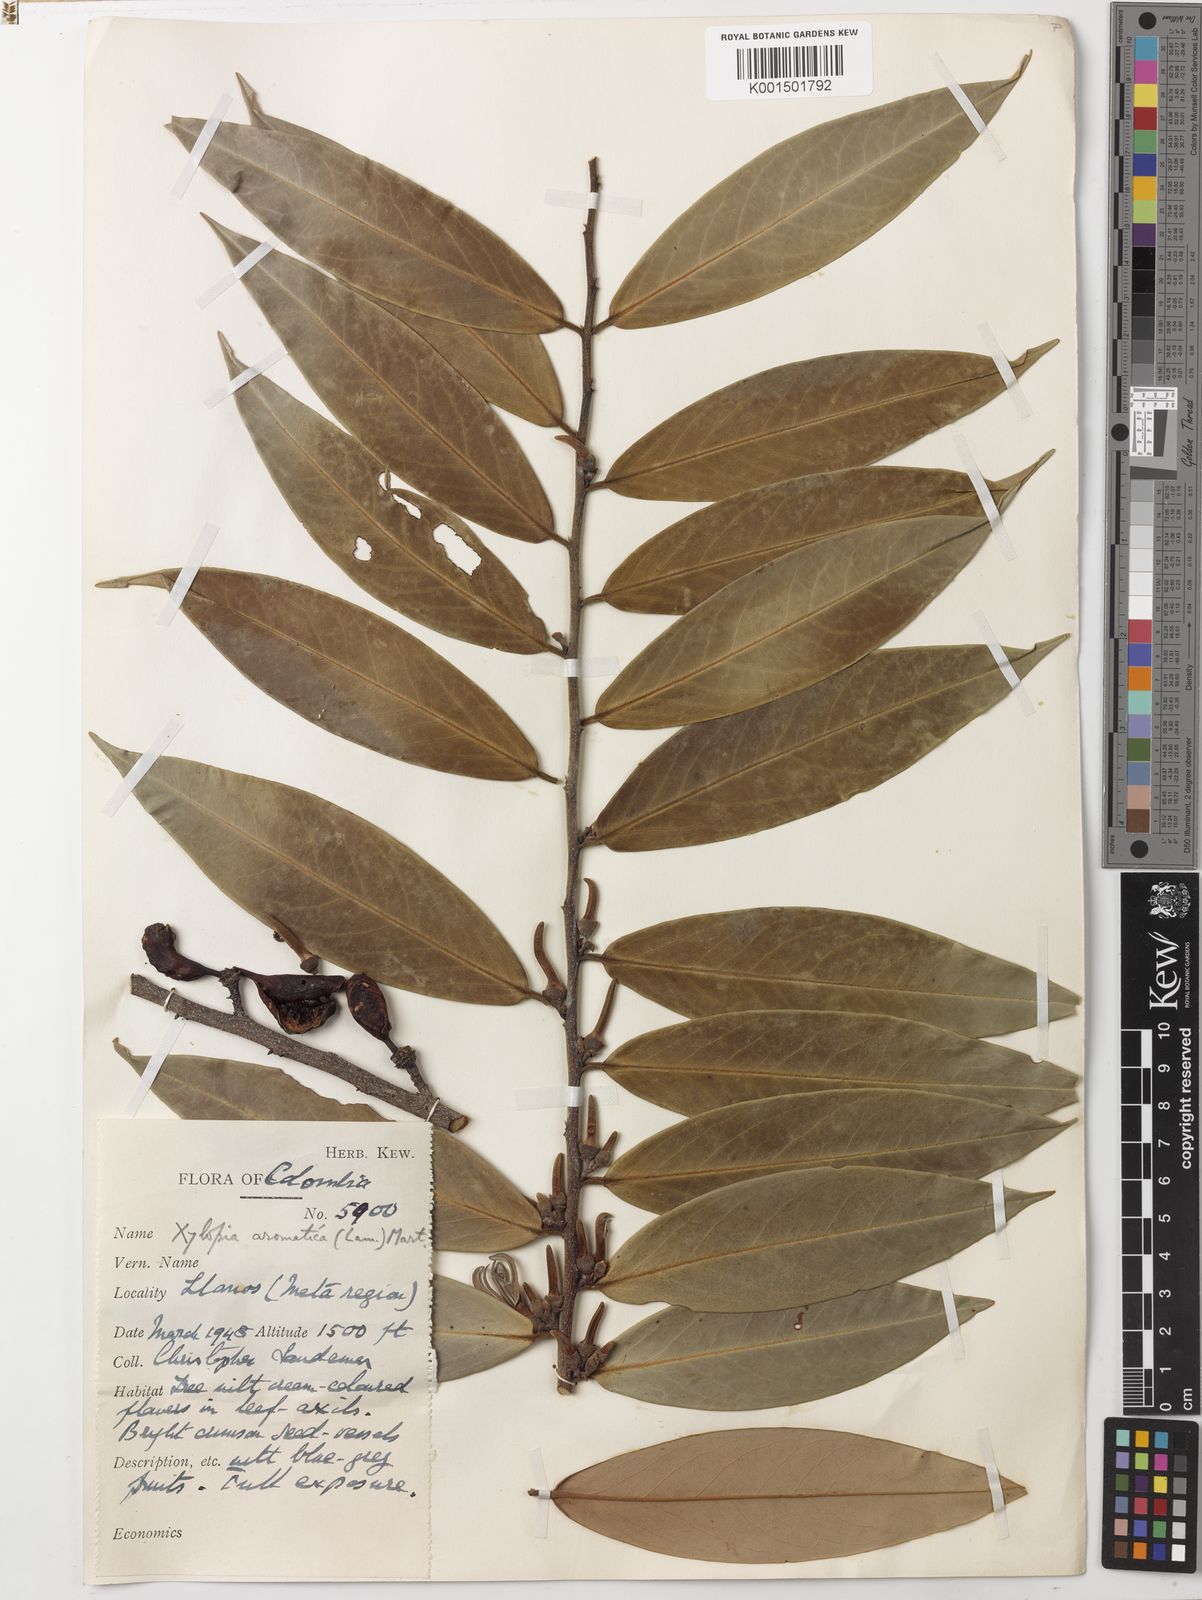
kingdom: Plantae
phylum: Tracheophyta
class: Magnoliopsida
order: Magnoliales
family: Annonaceae
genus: Xylopia
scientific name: Xylopia aromatica
